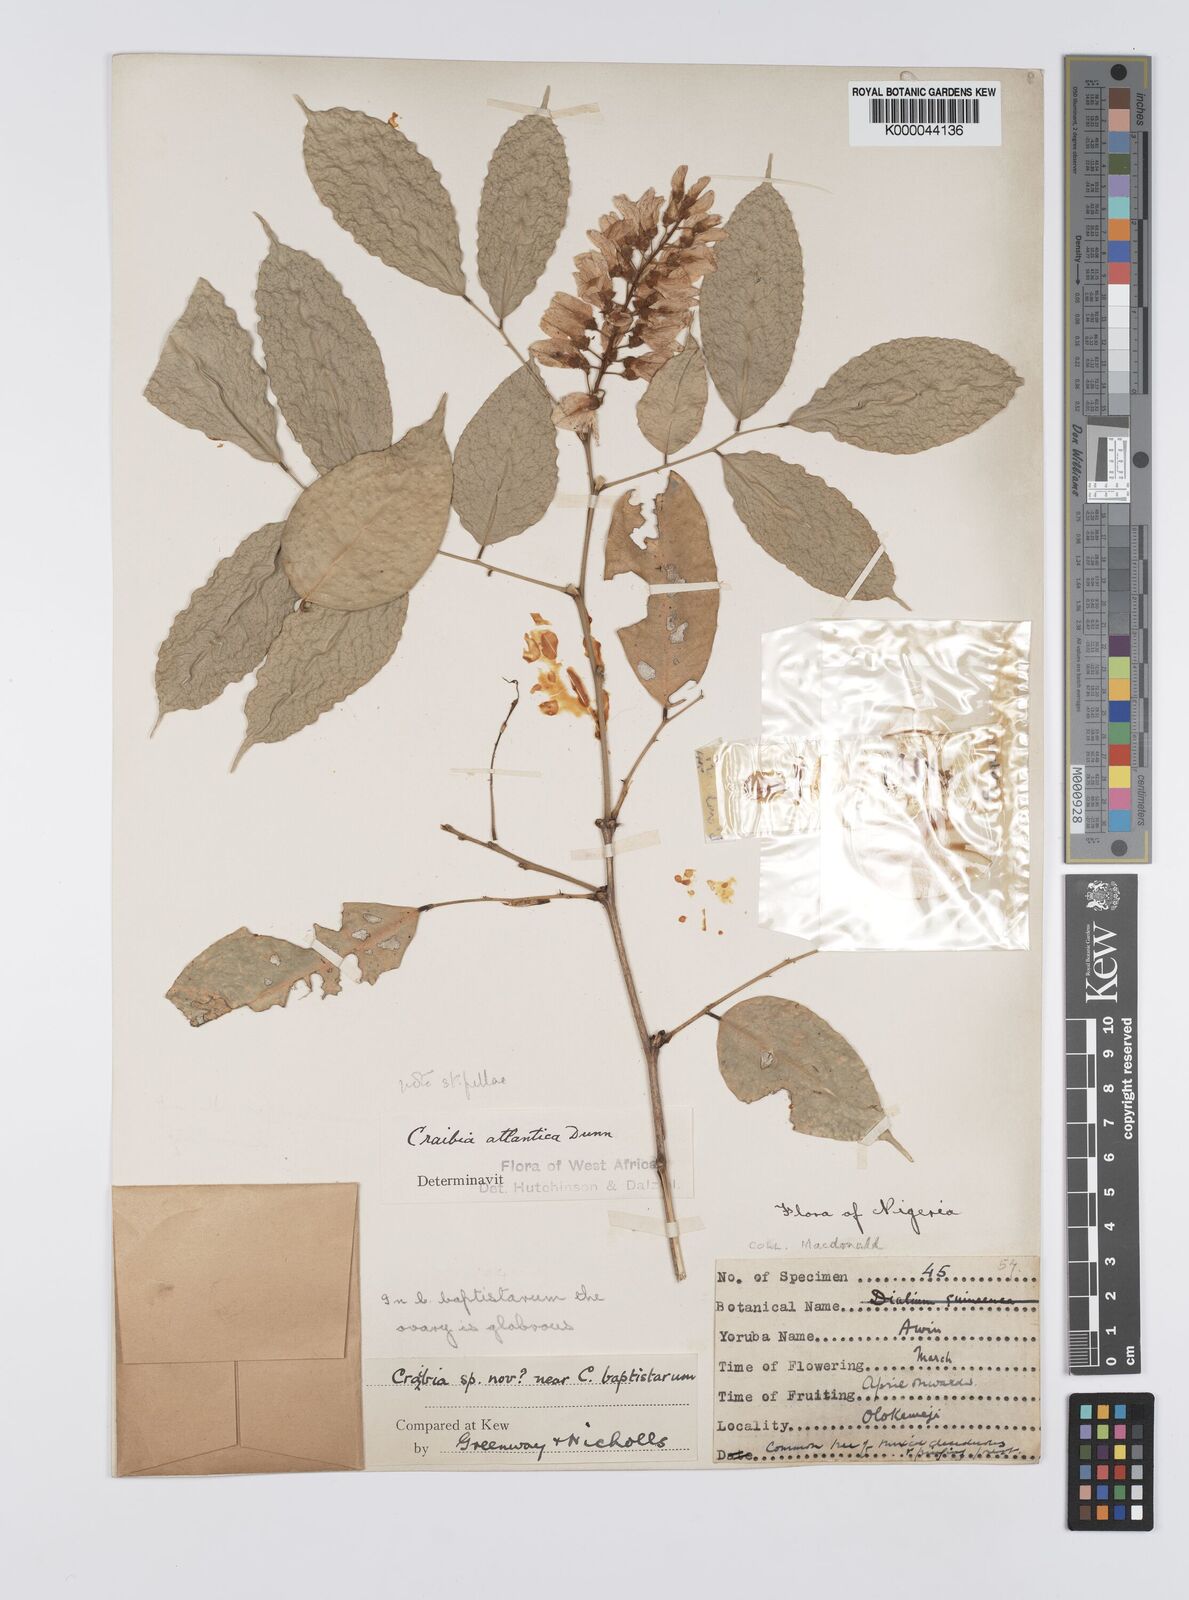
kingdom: Plantae
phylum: Tracheophyta
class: Magnoliopsida
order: Fabales
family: Fabaceae
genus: Craibia
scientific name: Craibia atlantica
